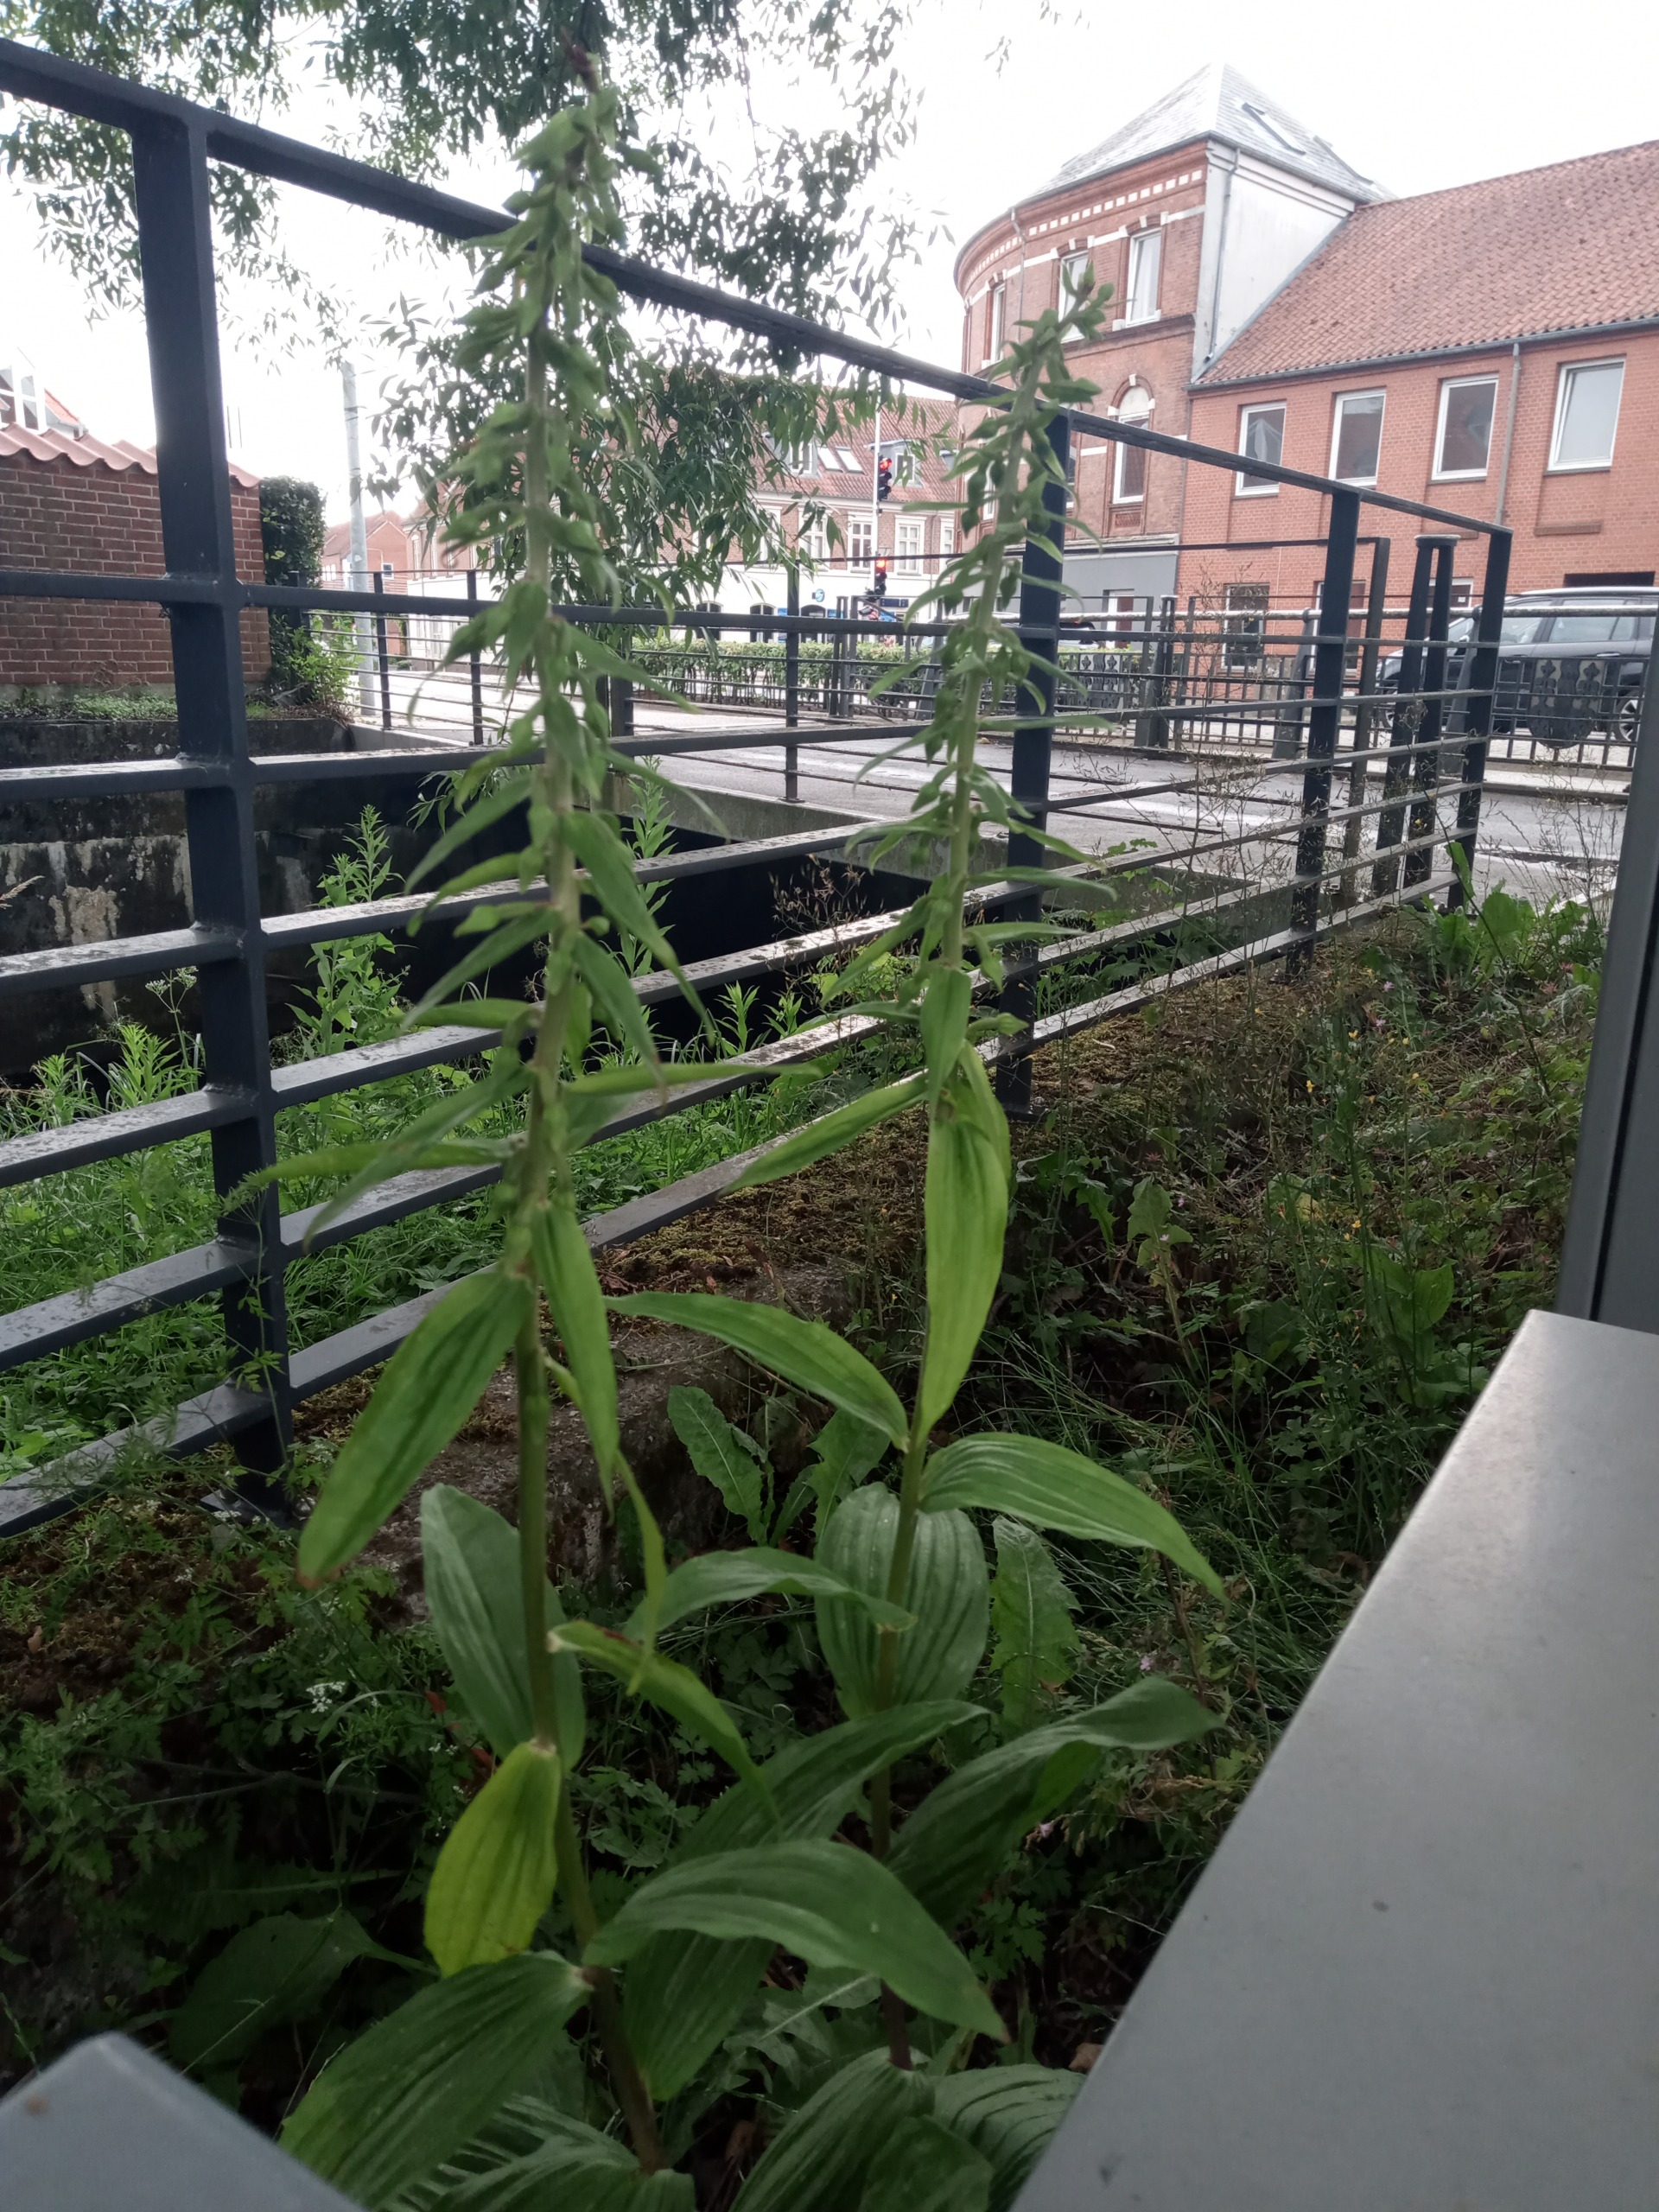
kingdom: Plantae
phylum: Tracheophyta
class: Liliopsida
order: Asparagales
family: Orchidaceae
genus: Epipactis
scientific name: Epipactis helleborine
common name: Skov-hullæbe
